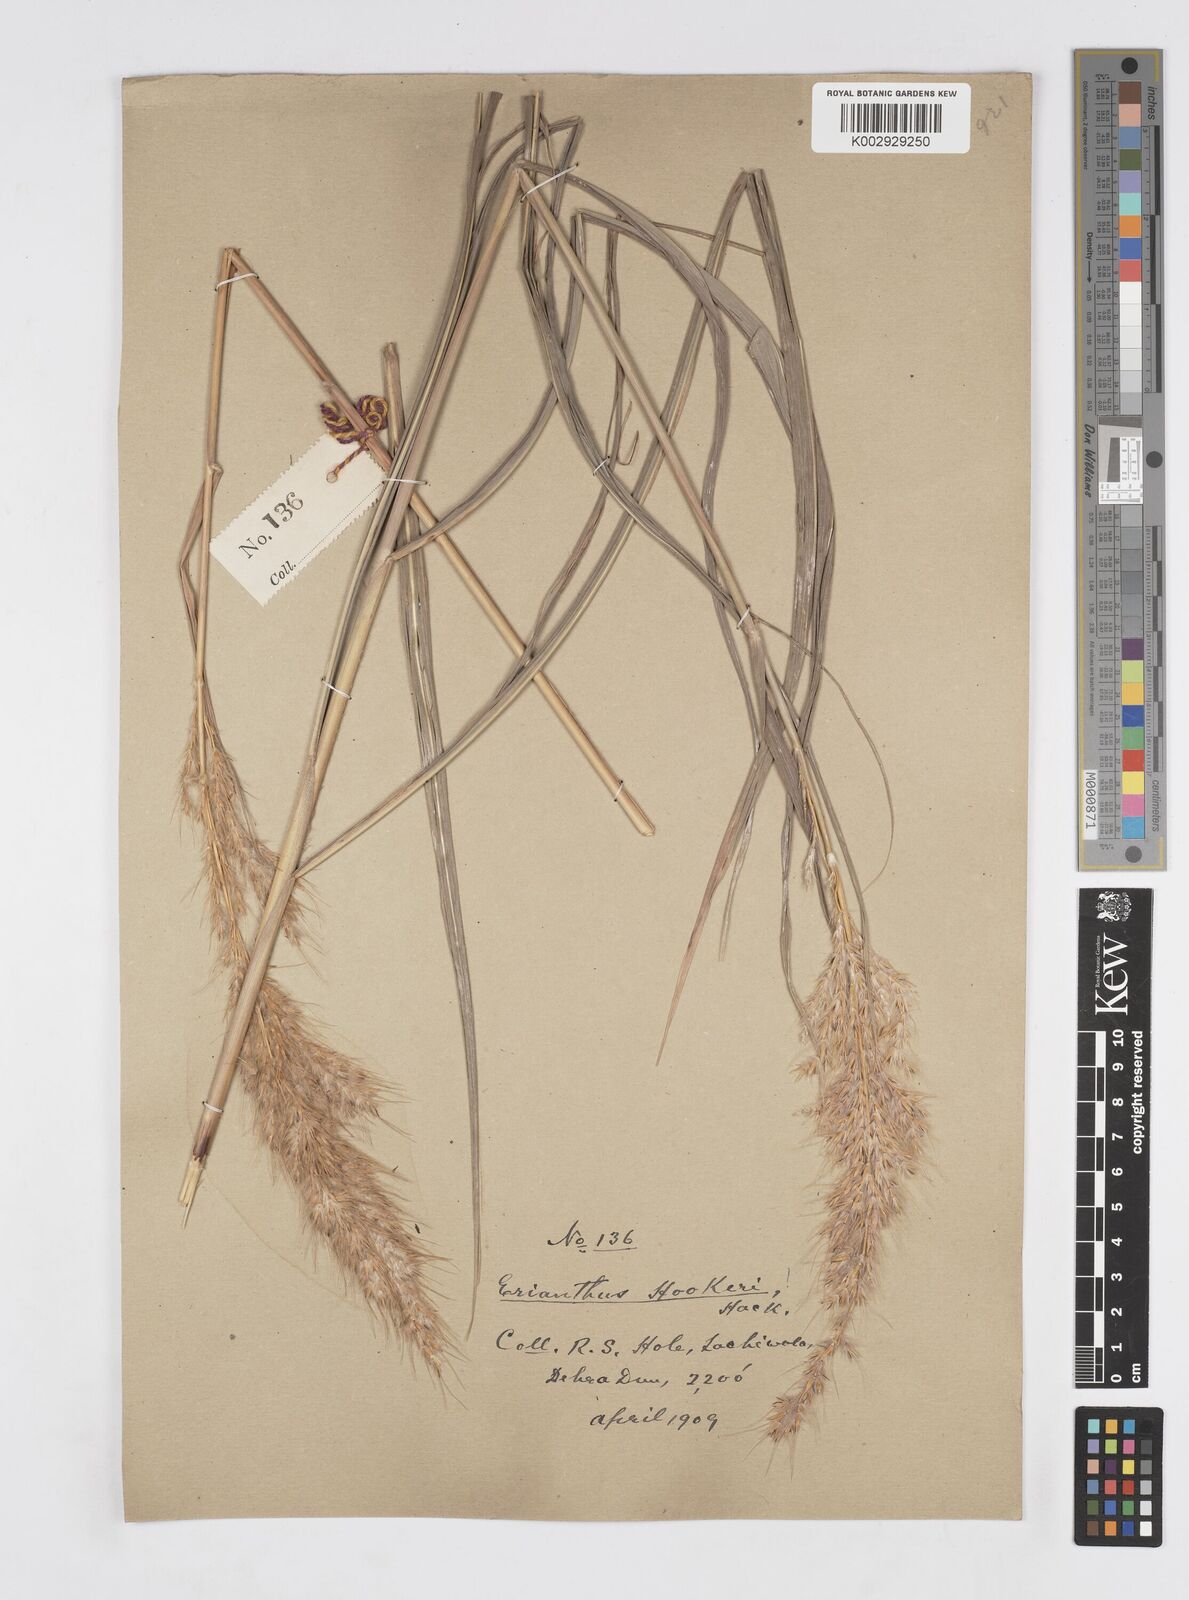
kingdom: Plantae
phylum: Tracheophyta
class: Liliopsida
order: Poales
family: Poaceae
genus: Saccharum
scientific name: Saccharum longesetosum
